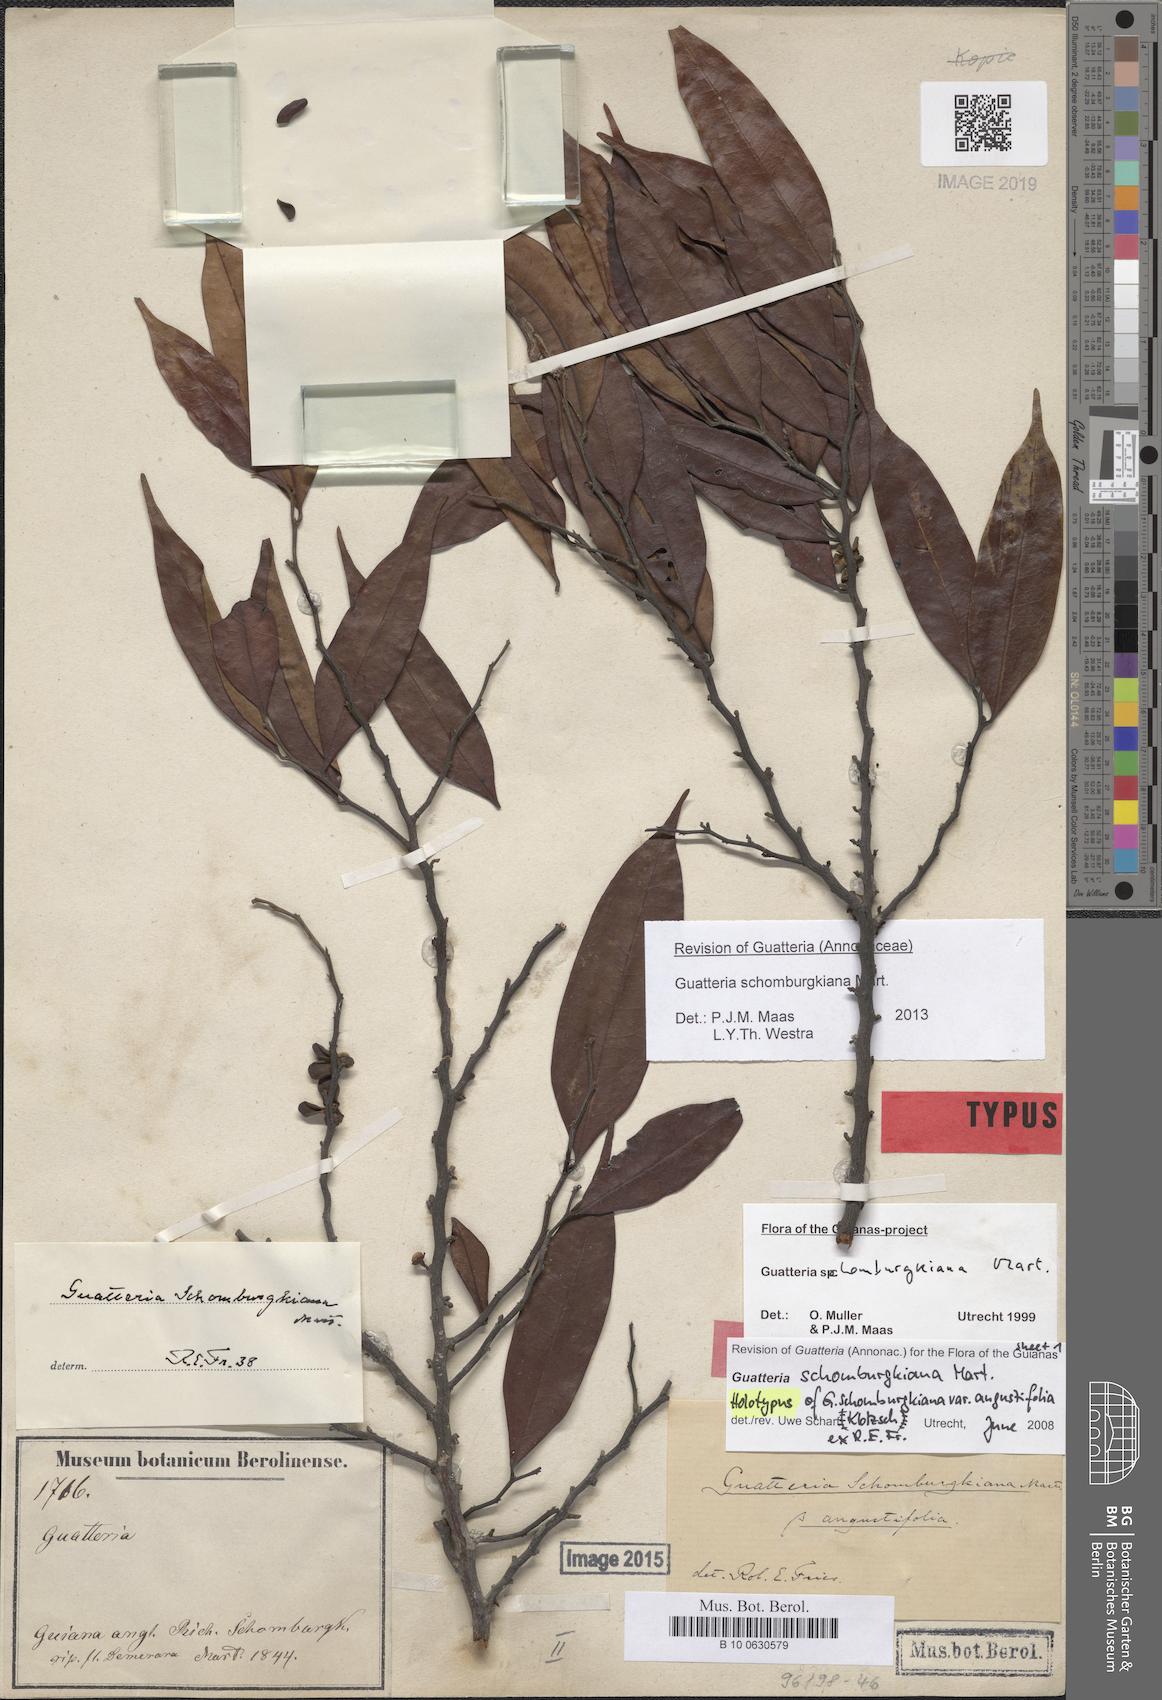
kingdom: Plantae
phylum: Tracheophyta
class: Magnoliopsida
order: Magnoliales
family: Annonaceae
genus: Guatteria
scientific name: Guatteria schomburgkiana
